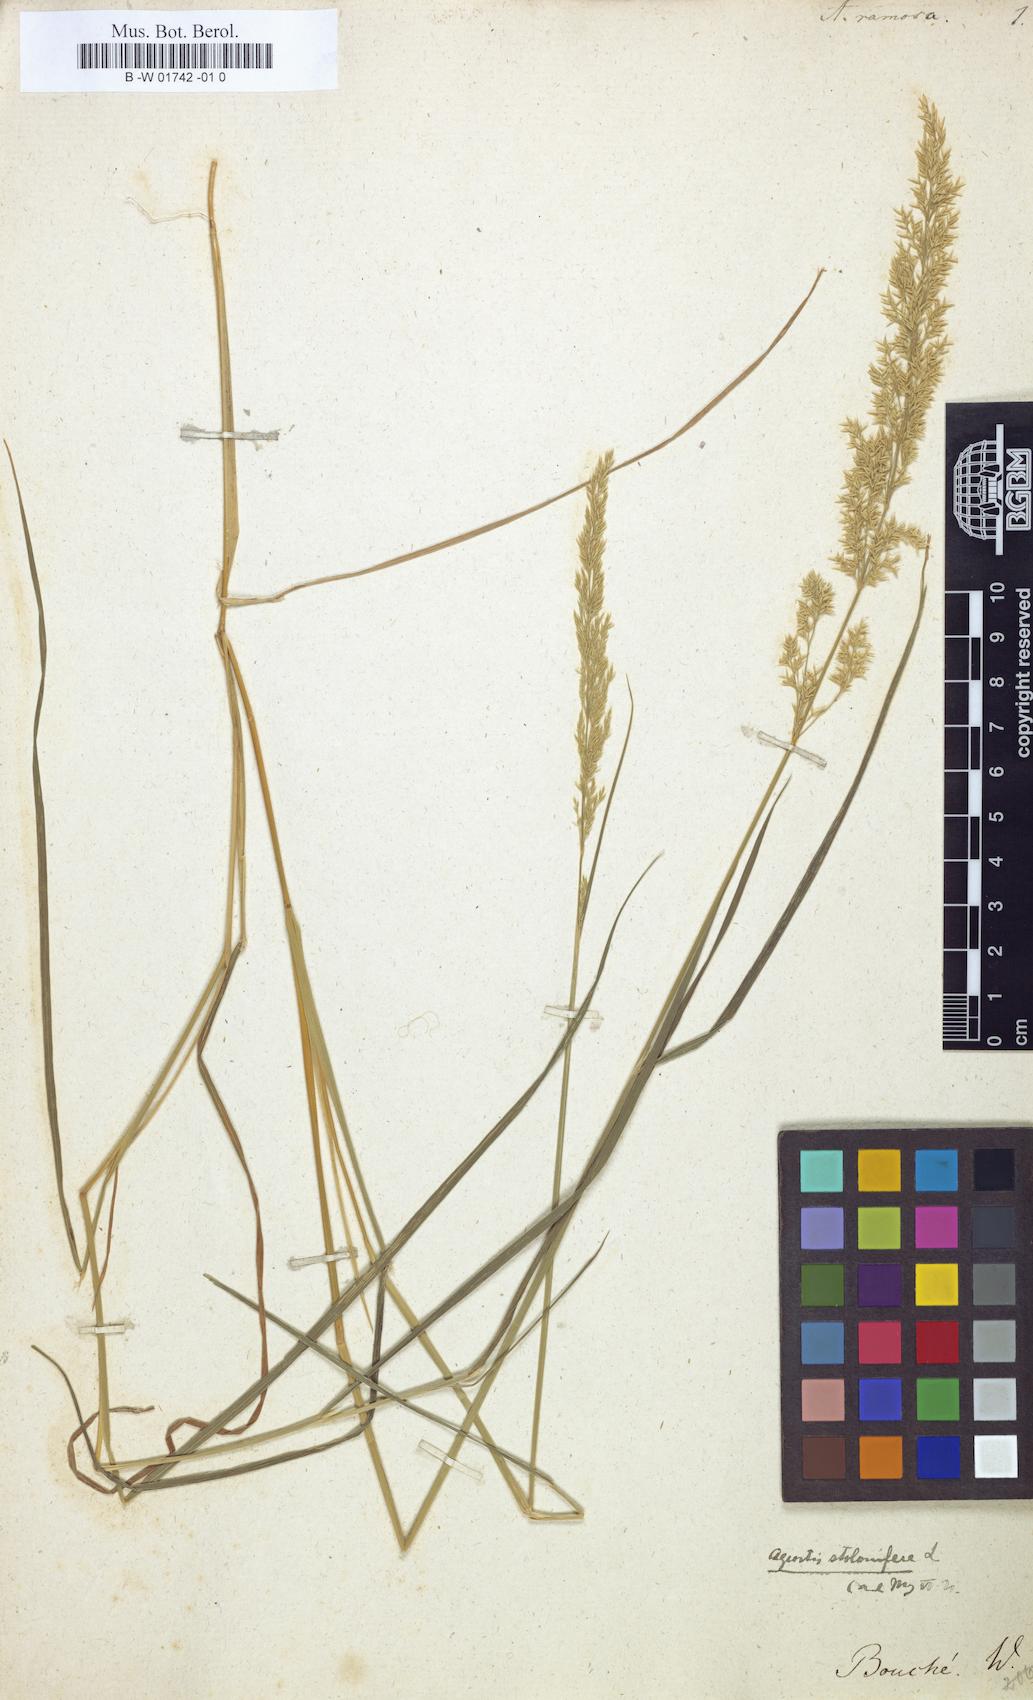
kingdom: Plantae
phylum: Tracheophyta
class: Liliopsida
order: Poales
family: Poaceae
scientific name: Poaceae
